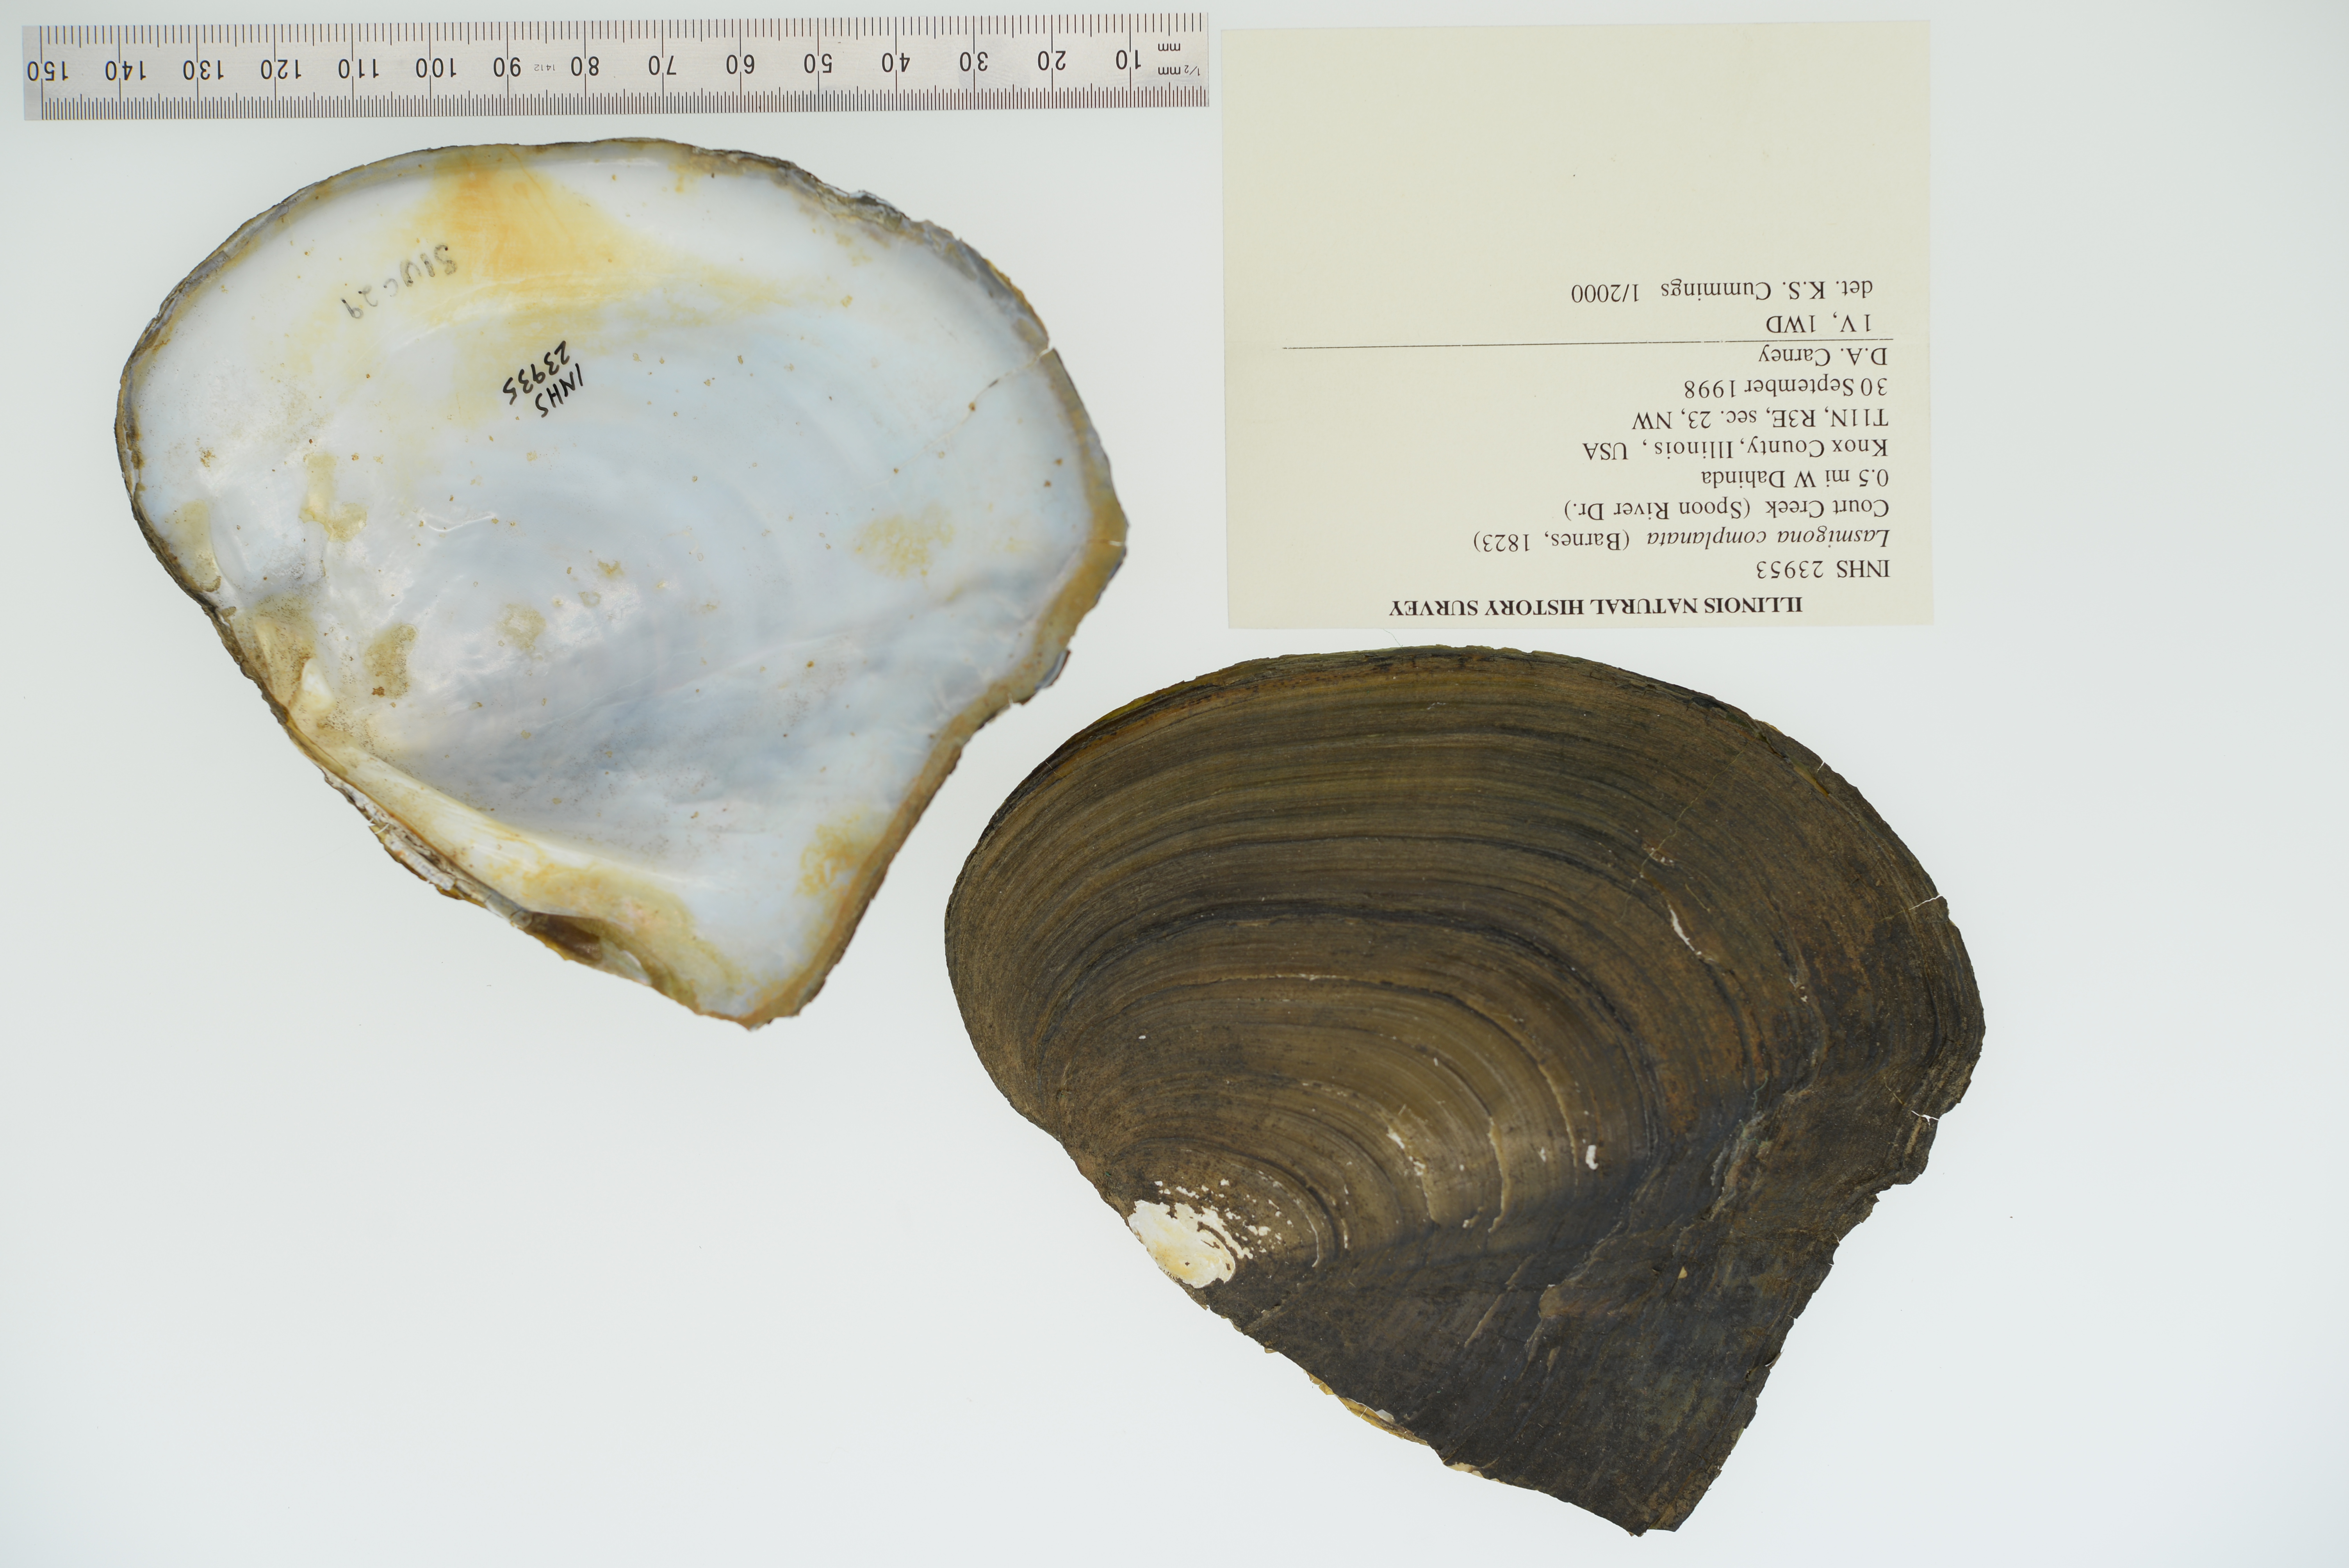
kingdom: Animalia
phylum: Mollusca
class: Bivalvia
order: Unionida
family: Unionidae
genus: Lasmigona
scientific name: Lasmigona complanata
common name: White heelsplitter
